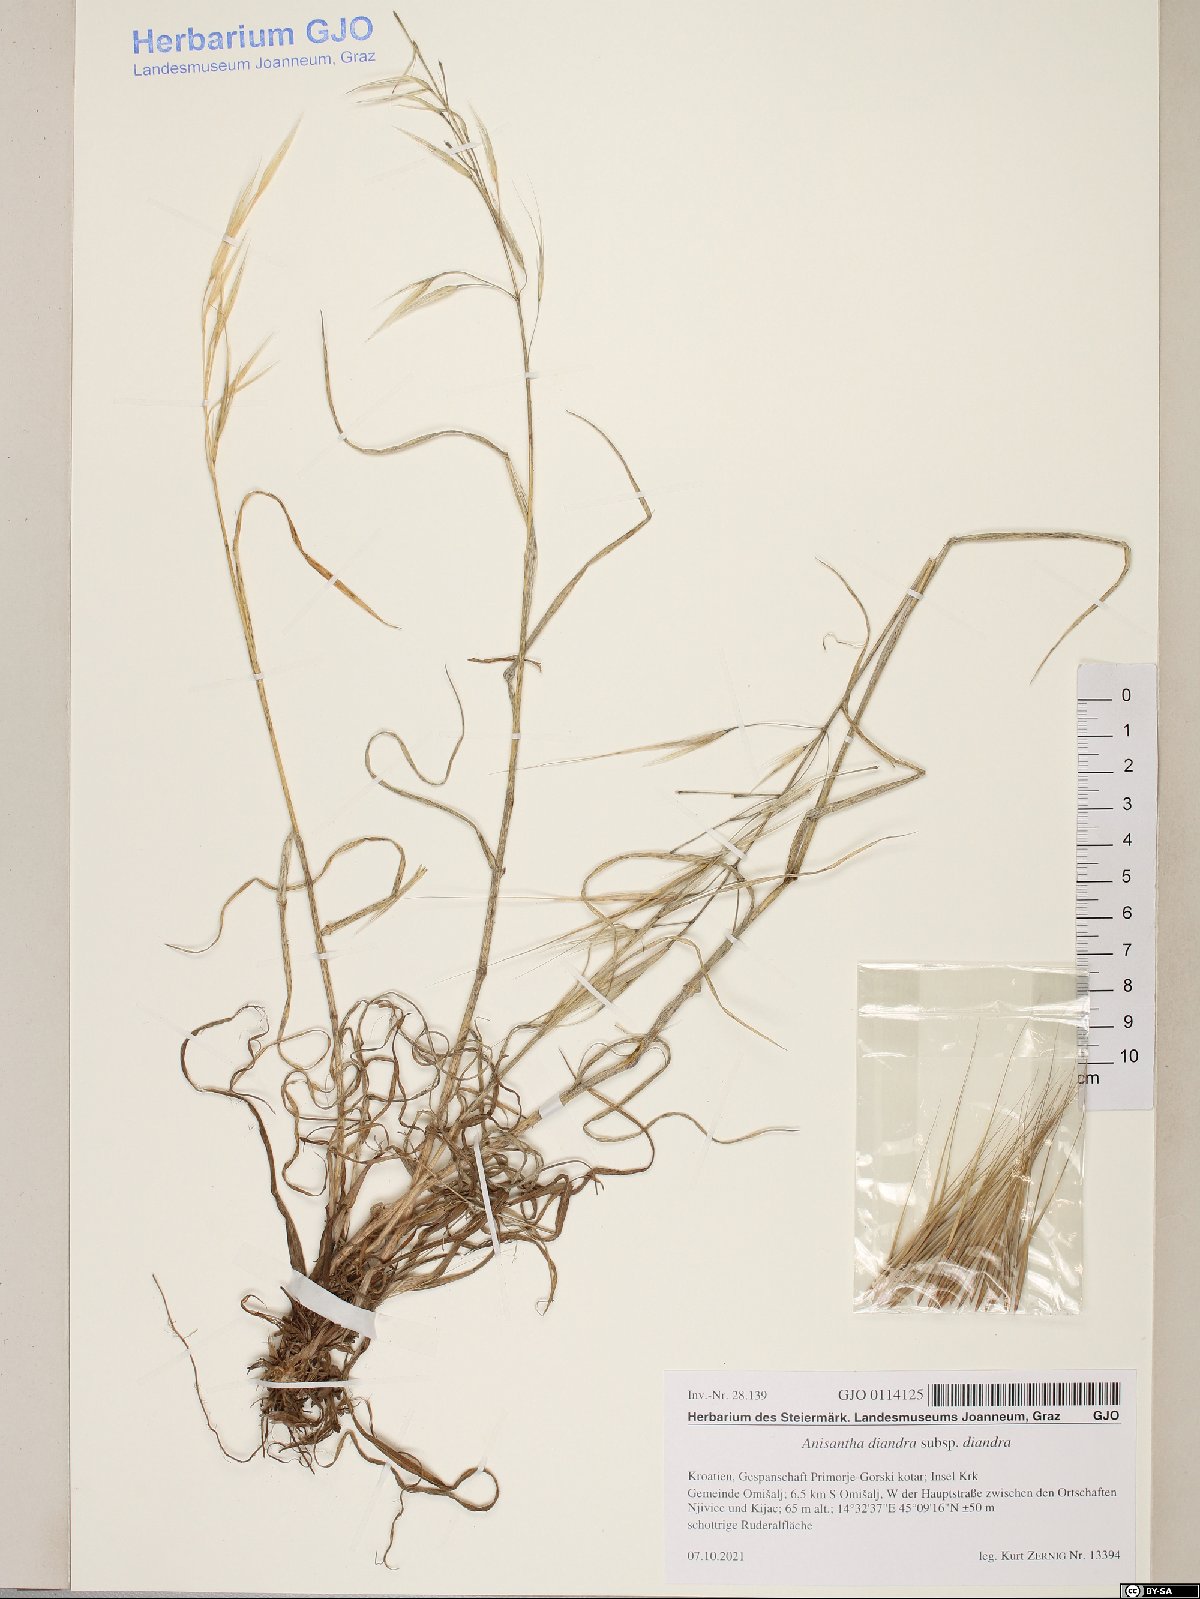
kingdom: Plantae
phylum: Tracheophyta
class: Liliopsida
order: Poales
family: Poaceae
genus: Bromus
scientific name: Bromus diandrus
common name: Ripgut brome
